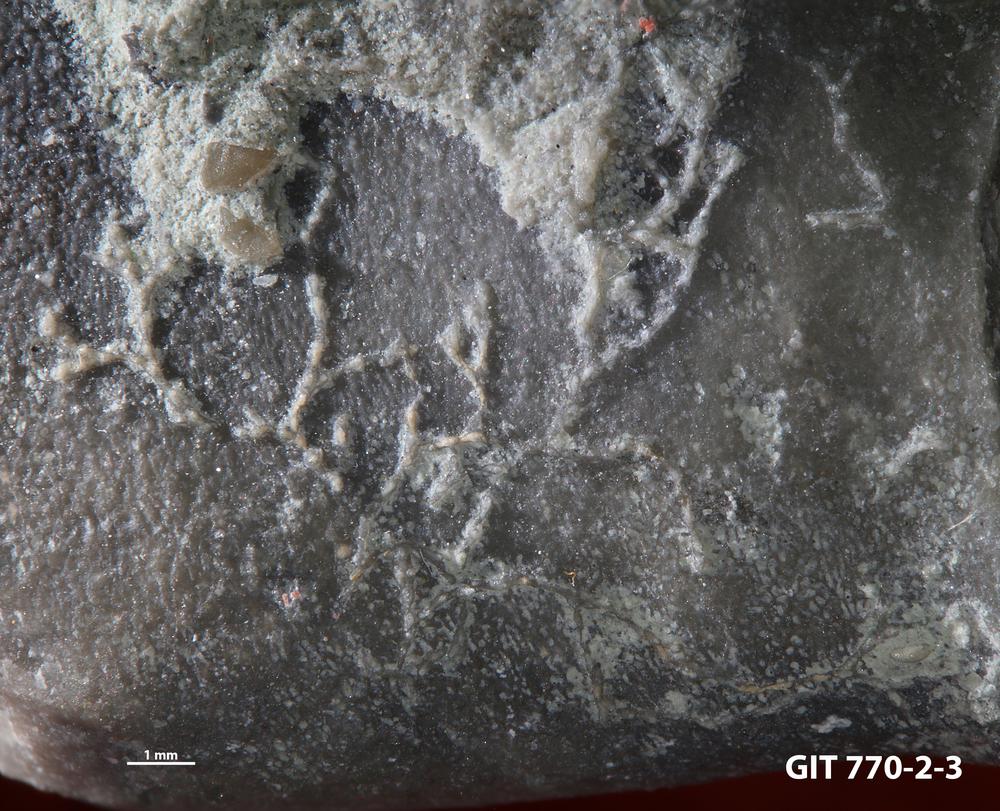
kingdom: Animalia
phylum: Bryozoa
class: Stenolaemata
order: Cyclostomatida
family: Corynotrypidae
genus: Corynotrypa
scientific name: Corynotrypa
